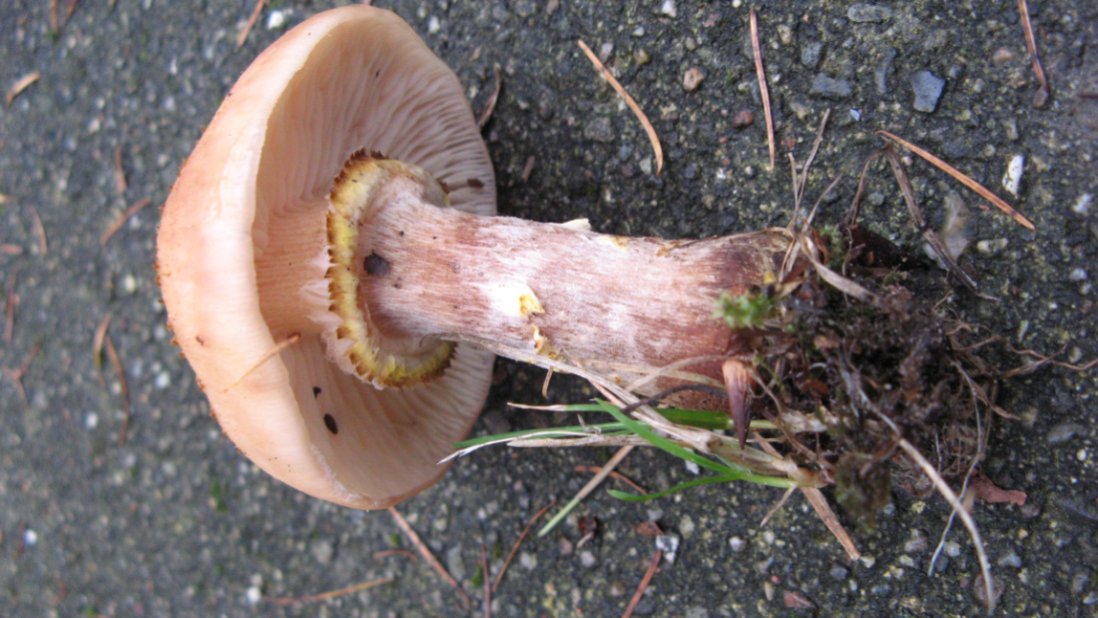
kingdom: Fungi
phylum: Basidiomycota
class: Agaricomycetes
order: Agaricales
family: Physalacriaceae
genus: Armillaria
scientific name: Armillaria ostoyae
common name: mørk honningsvamp
